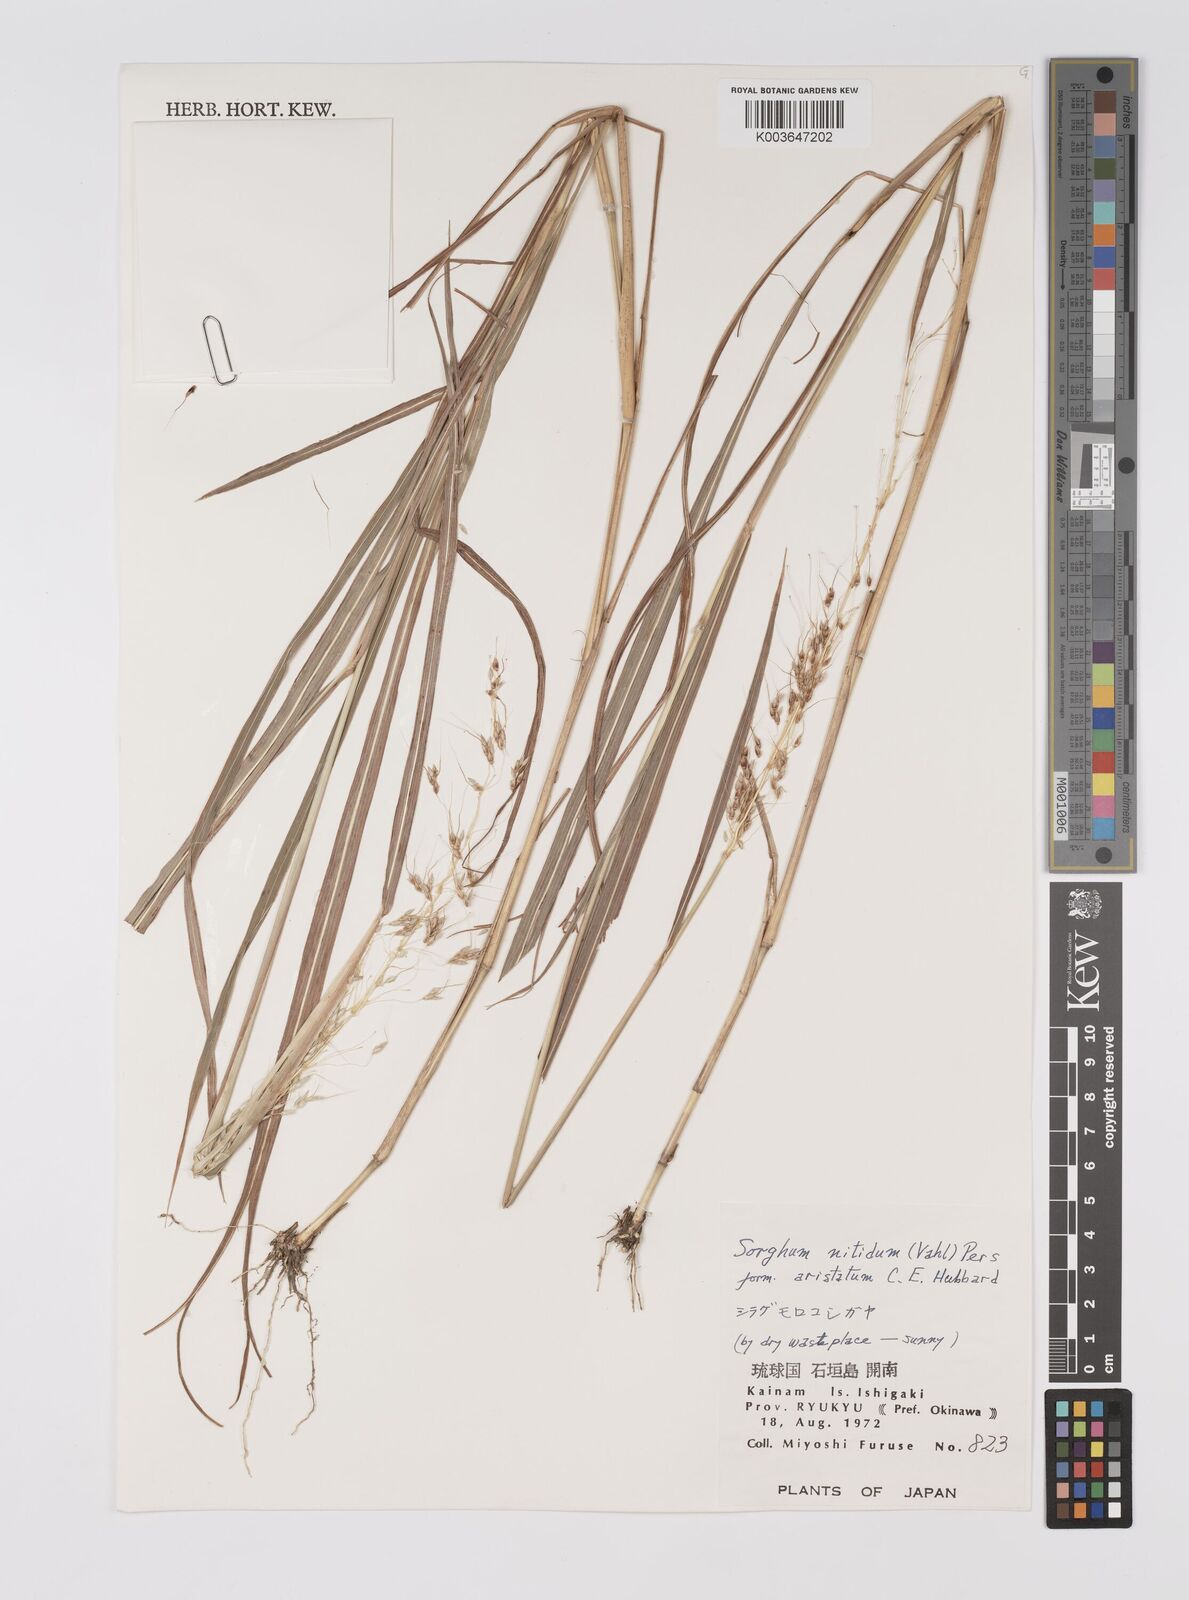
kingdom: Plantae
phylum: Tracheophyta
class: Liliopsida
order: Poales
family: Poaceae
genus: Sorghum
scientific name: Sorghum nitidum
